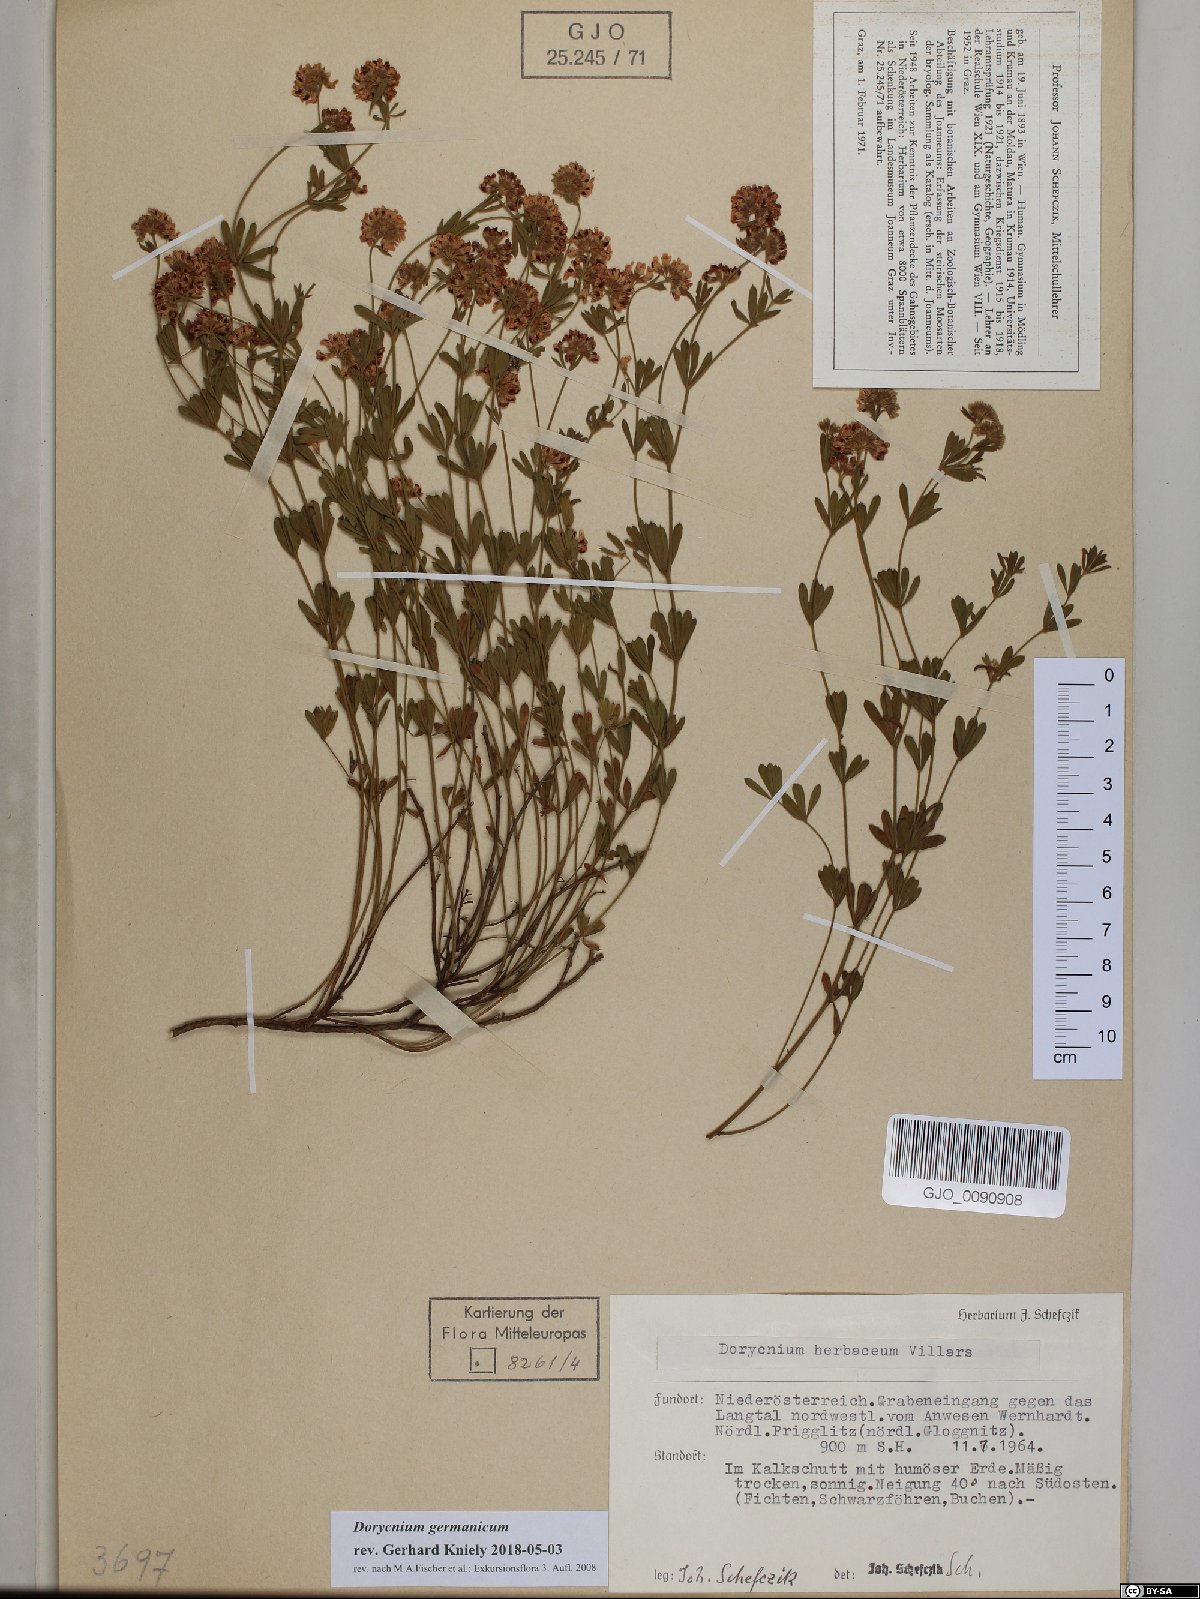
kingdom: Plantae
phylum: Tracheophyta
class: Magnoliopsida
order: Fabales
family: Fabaceae
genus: Lotus
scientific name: Lotus germanicus
